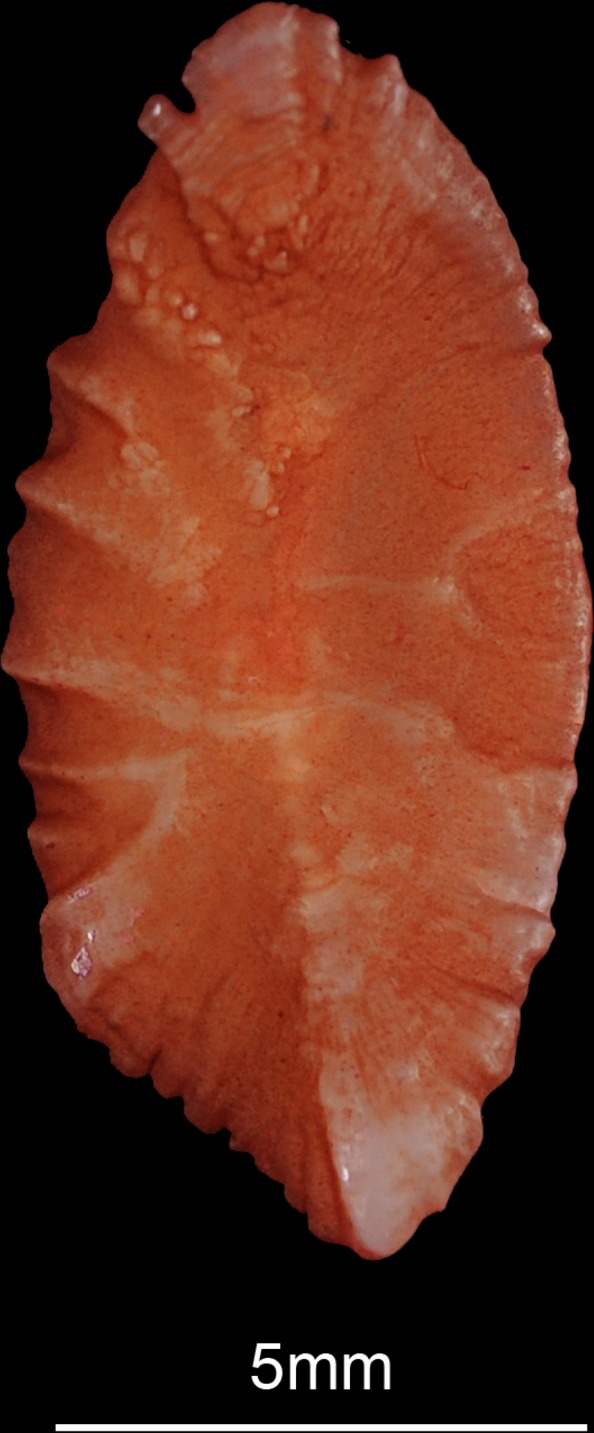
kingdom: Animalia
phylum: Chordata
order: Perciformes
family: Sparidae
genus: Pachymetopon
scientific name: Pachymetopon grande
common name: Bronze bream
